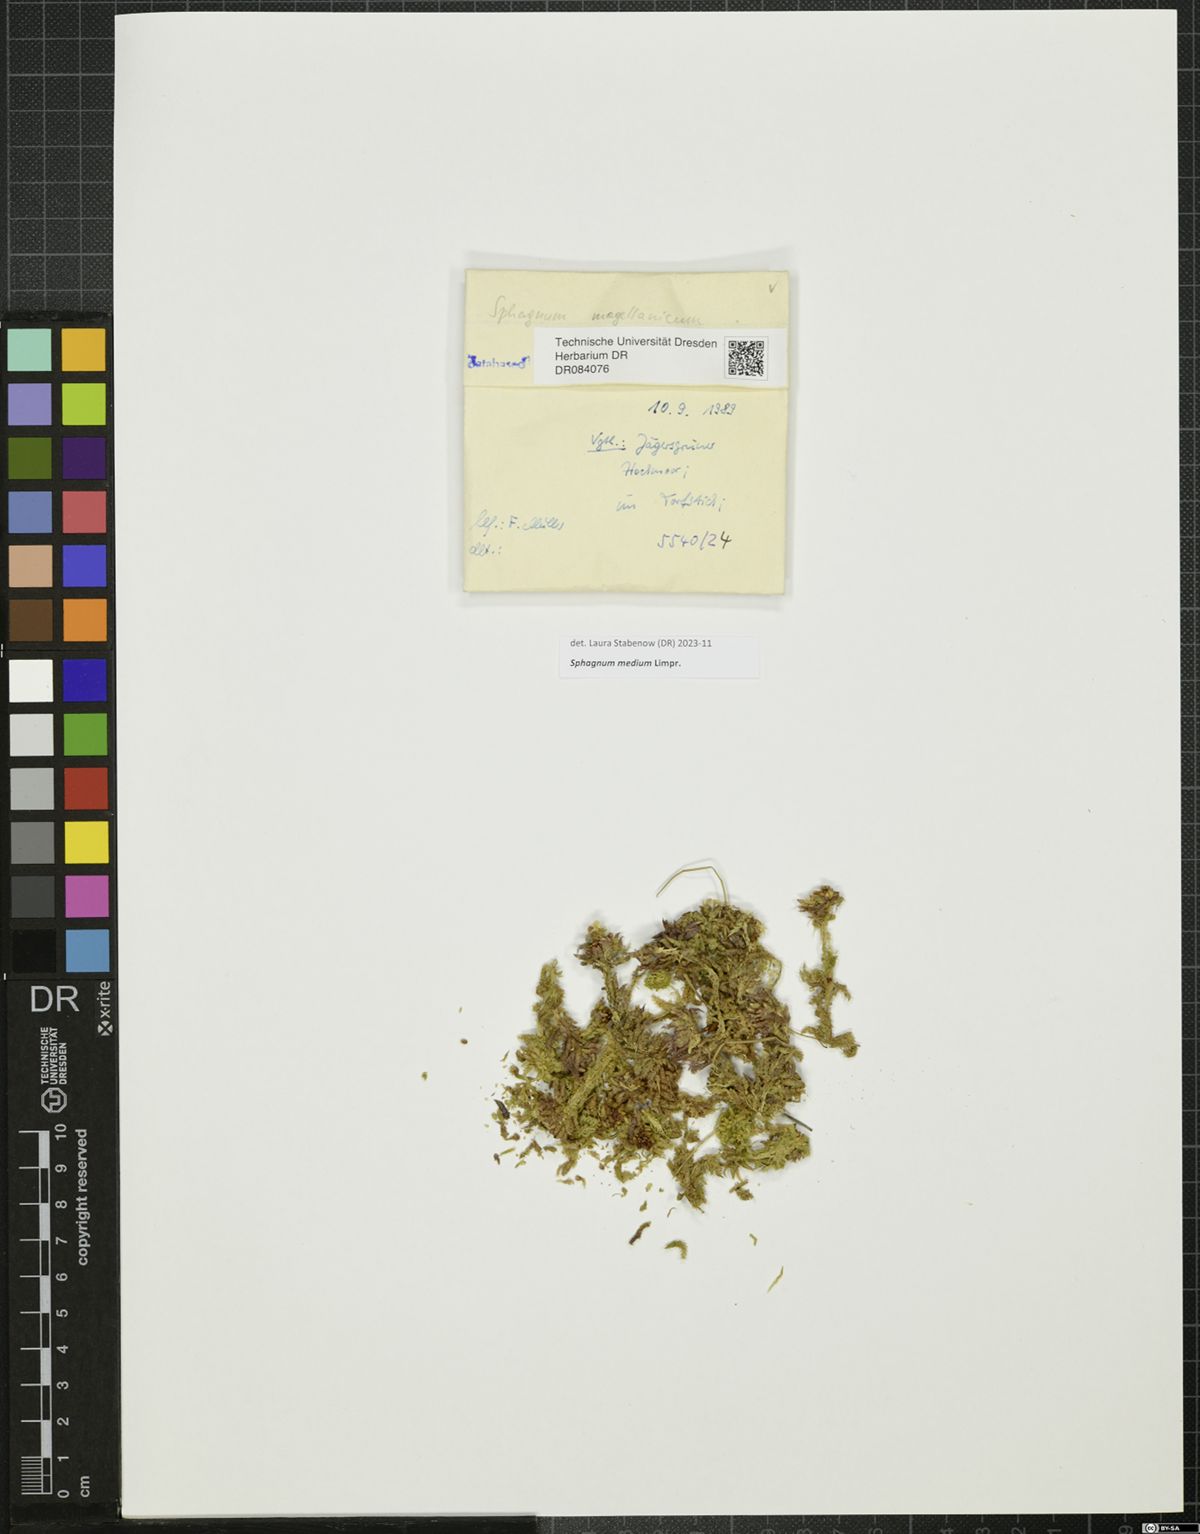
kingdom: Plantae
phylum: Bryophyta
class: Sphagnopsida
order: Sphagnales
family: Sphagnaceae
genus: Sphagnum
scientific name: Sphagnum medium
